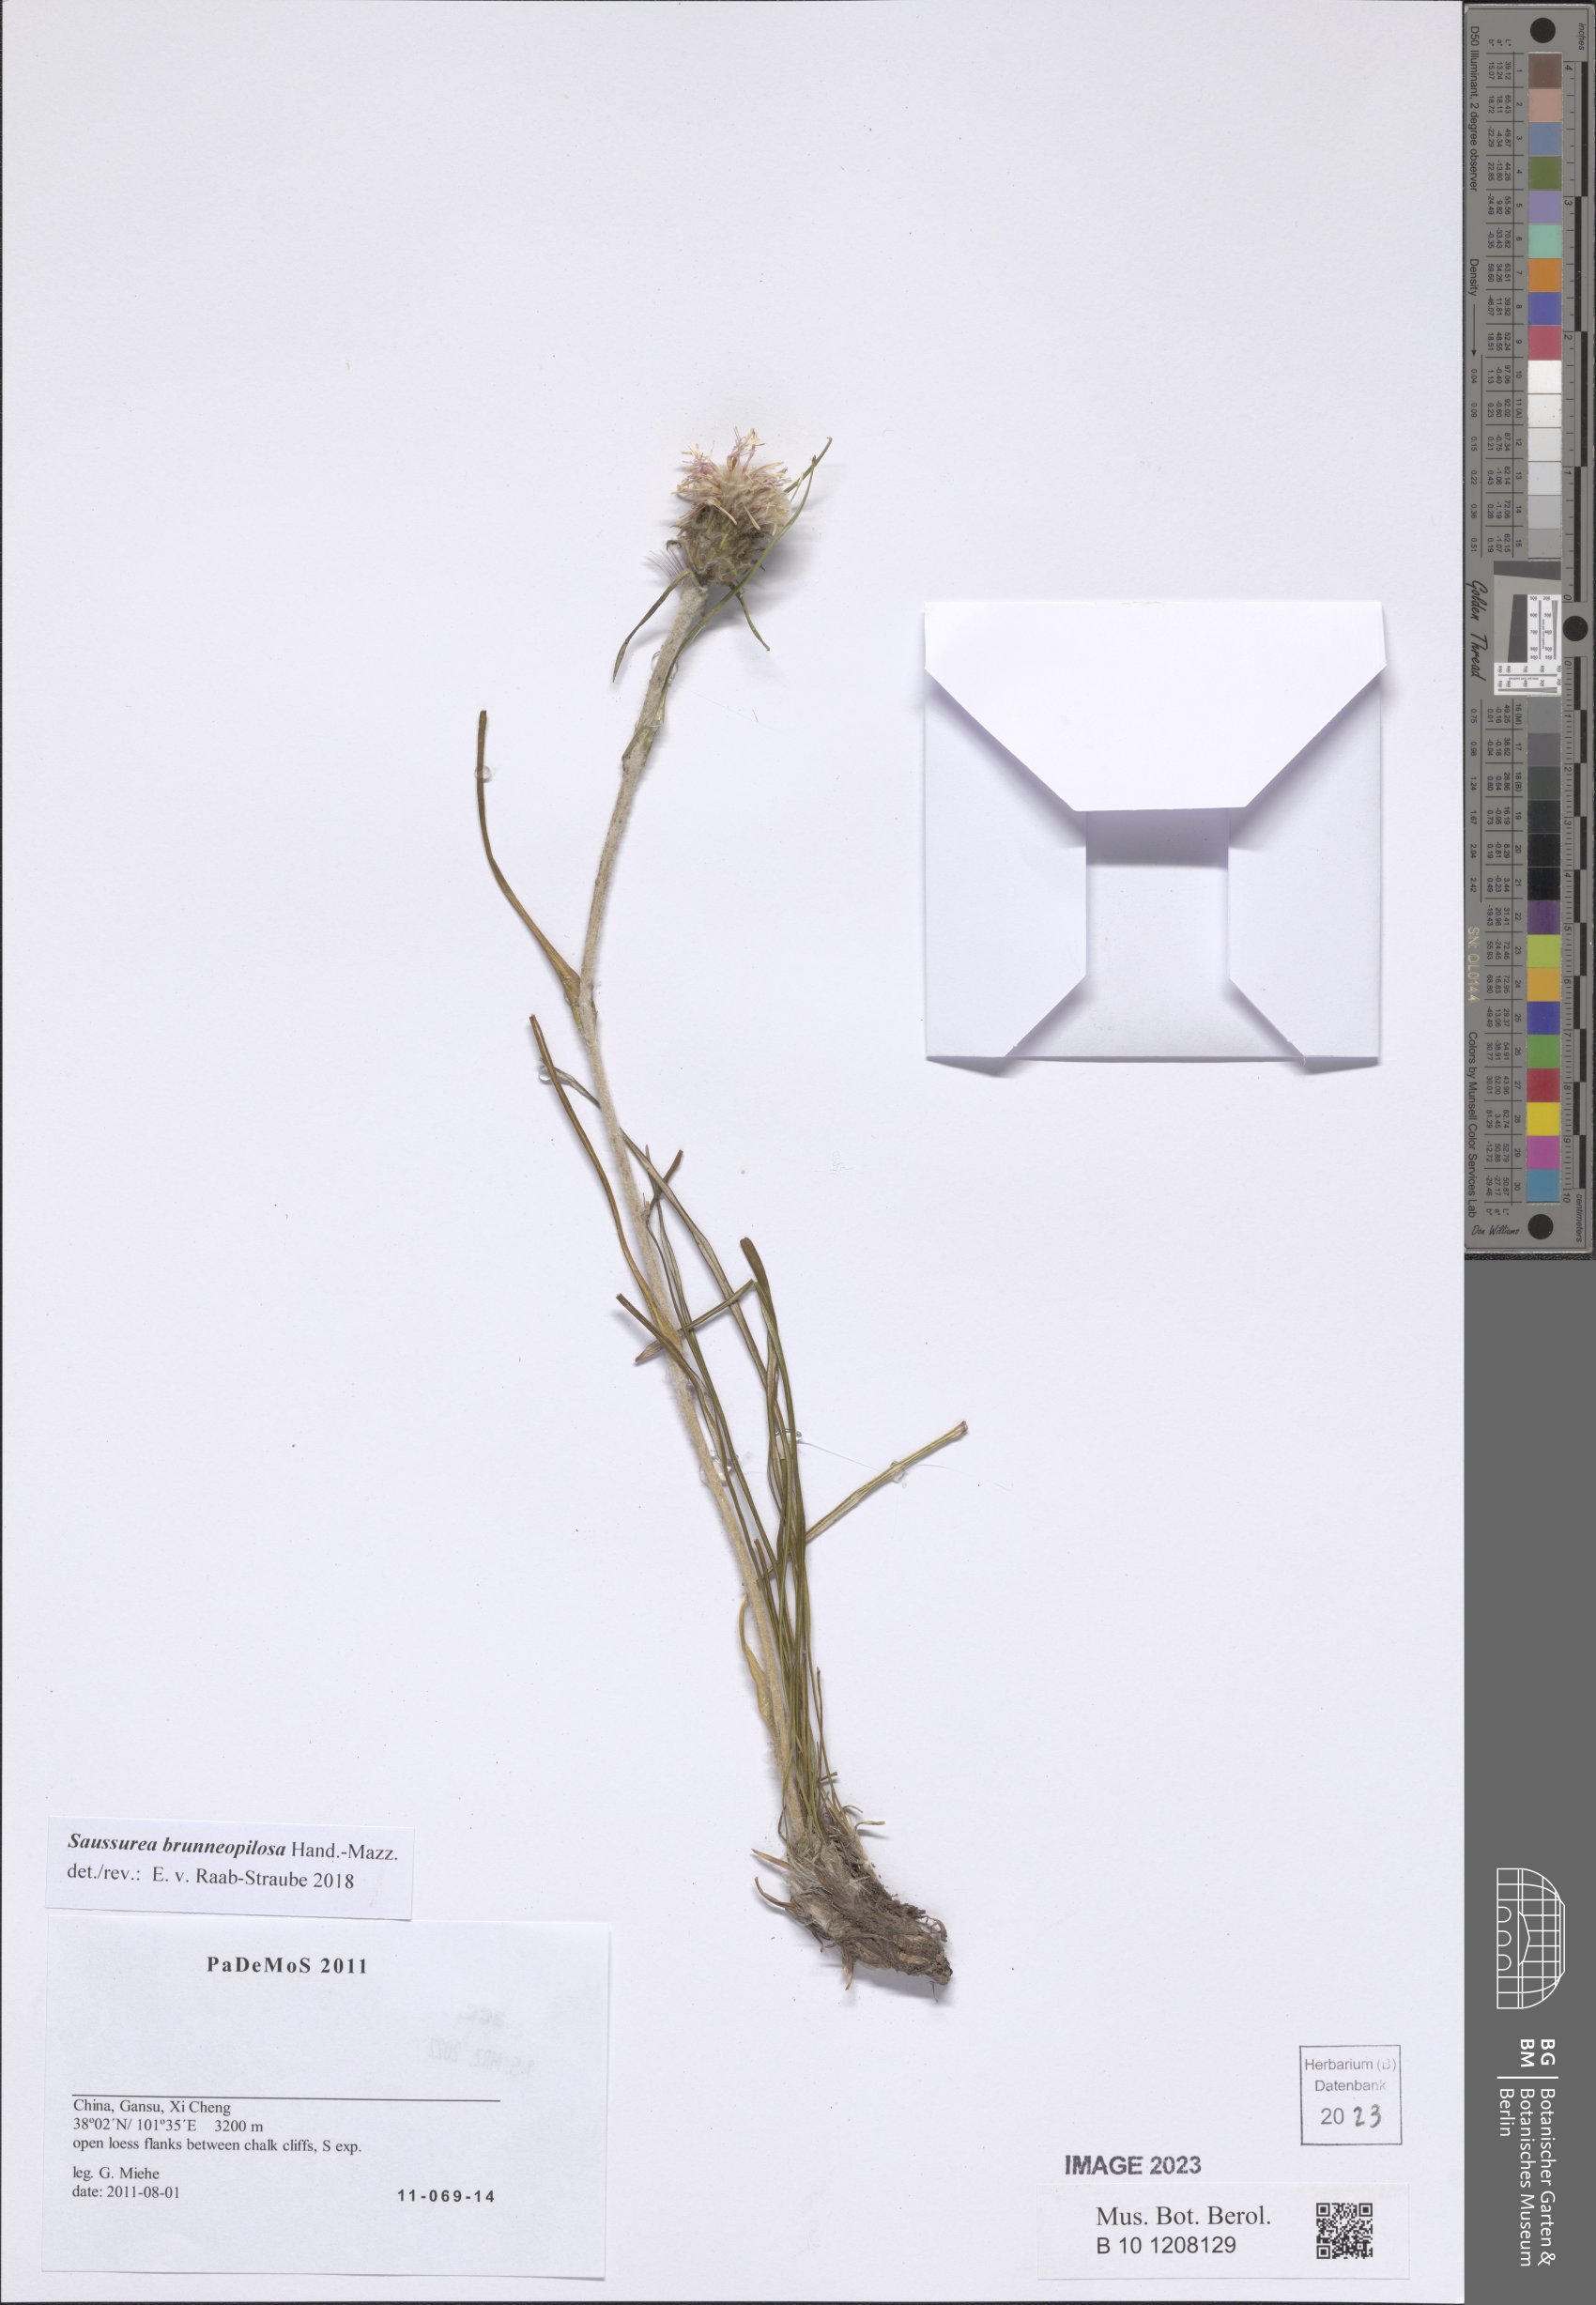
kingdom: Plantae
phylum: Tracheophyta
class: Magnoliopsida
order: Asterales
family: Asteraceae
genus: Saussurea
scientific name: Saussurea brunneopilosa
